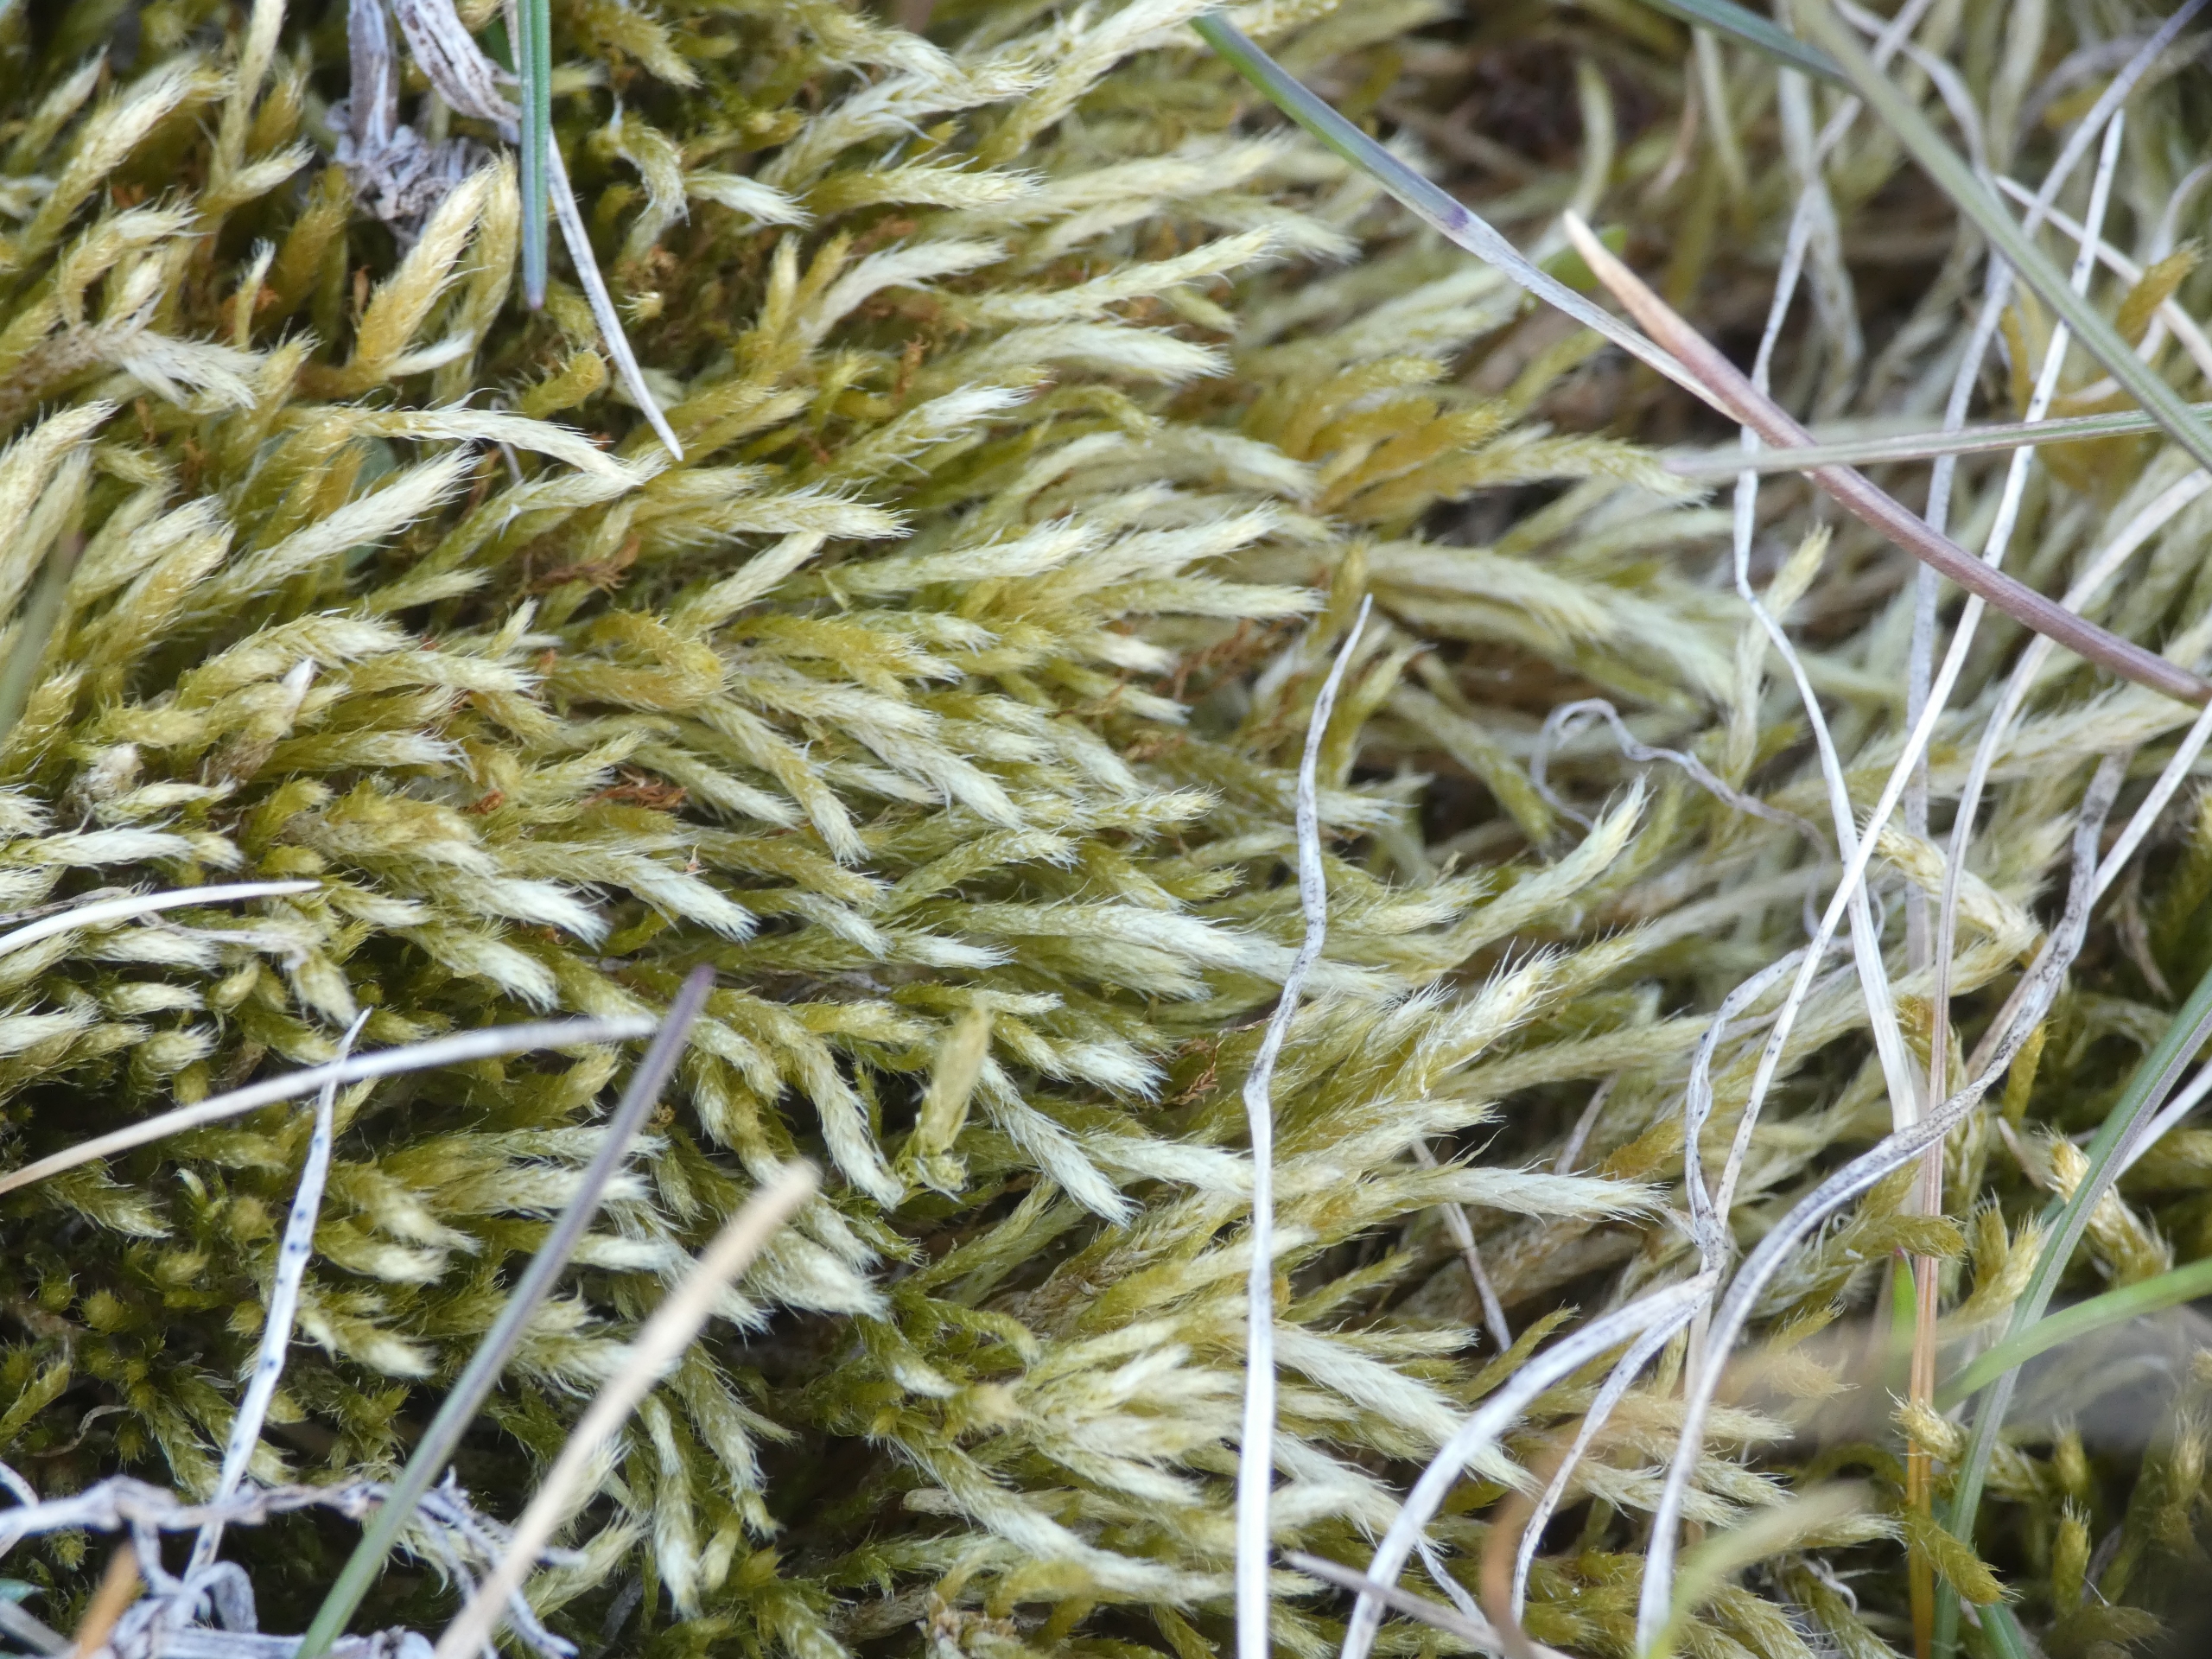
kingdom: Plantae
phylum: Bryophyta
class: Bryopsida
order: Hypnales
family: Brachytheciaceae
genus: Brachythecium
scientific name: Brachythecium albicans
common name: Hvidlig kortkapsel
